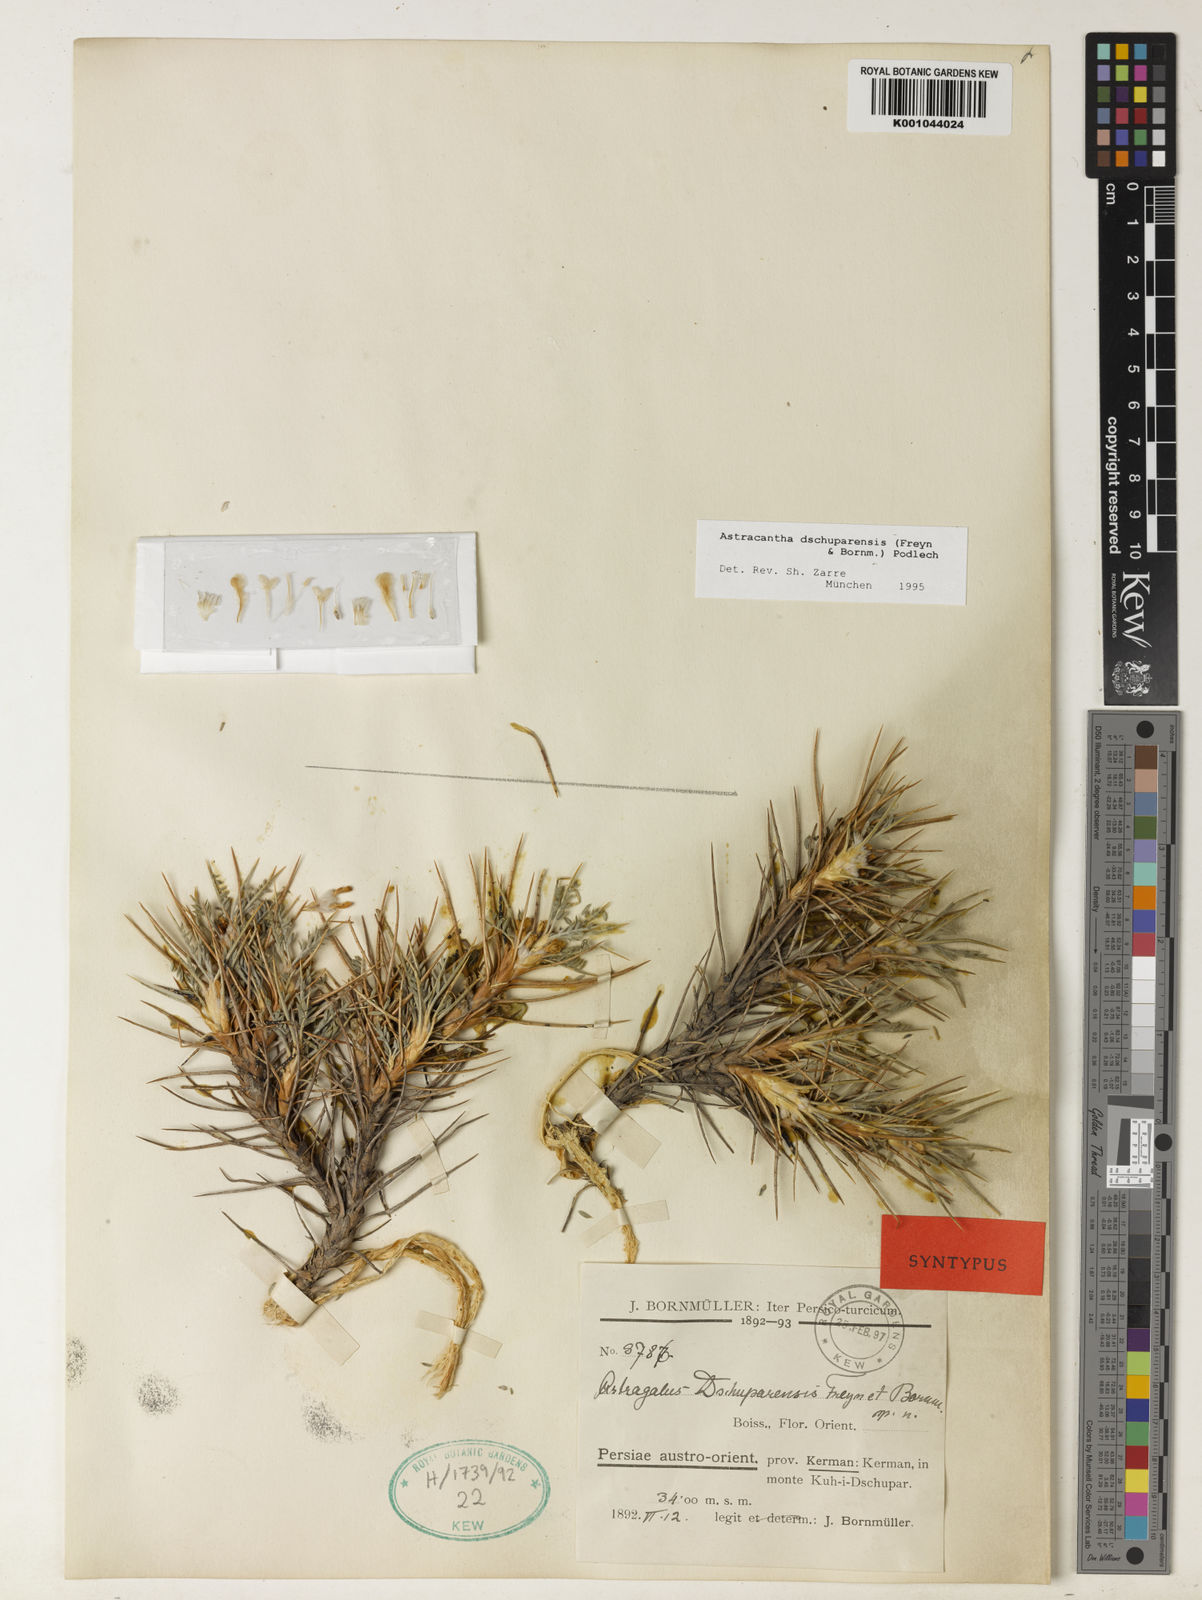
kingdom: Plantae
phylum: Tracheophyta
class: Magnoliopsida
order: Fabales
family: Fabaceae
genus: Astragalus
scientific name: Astragalus dschuparensis
